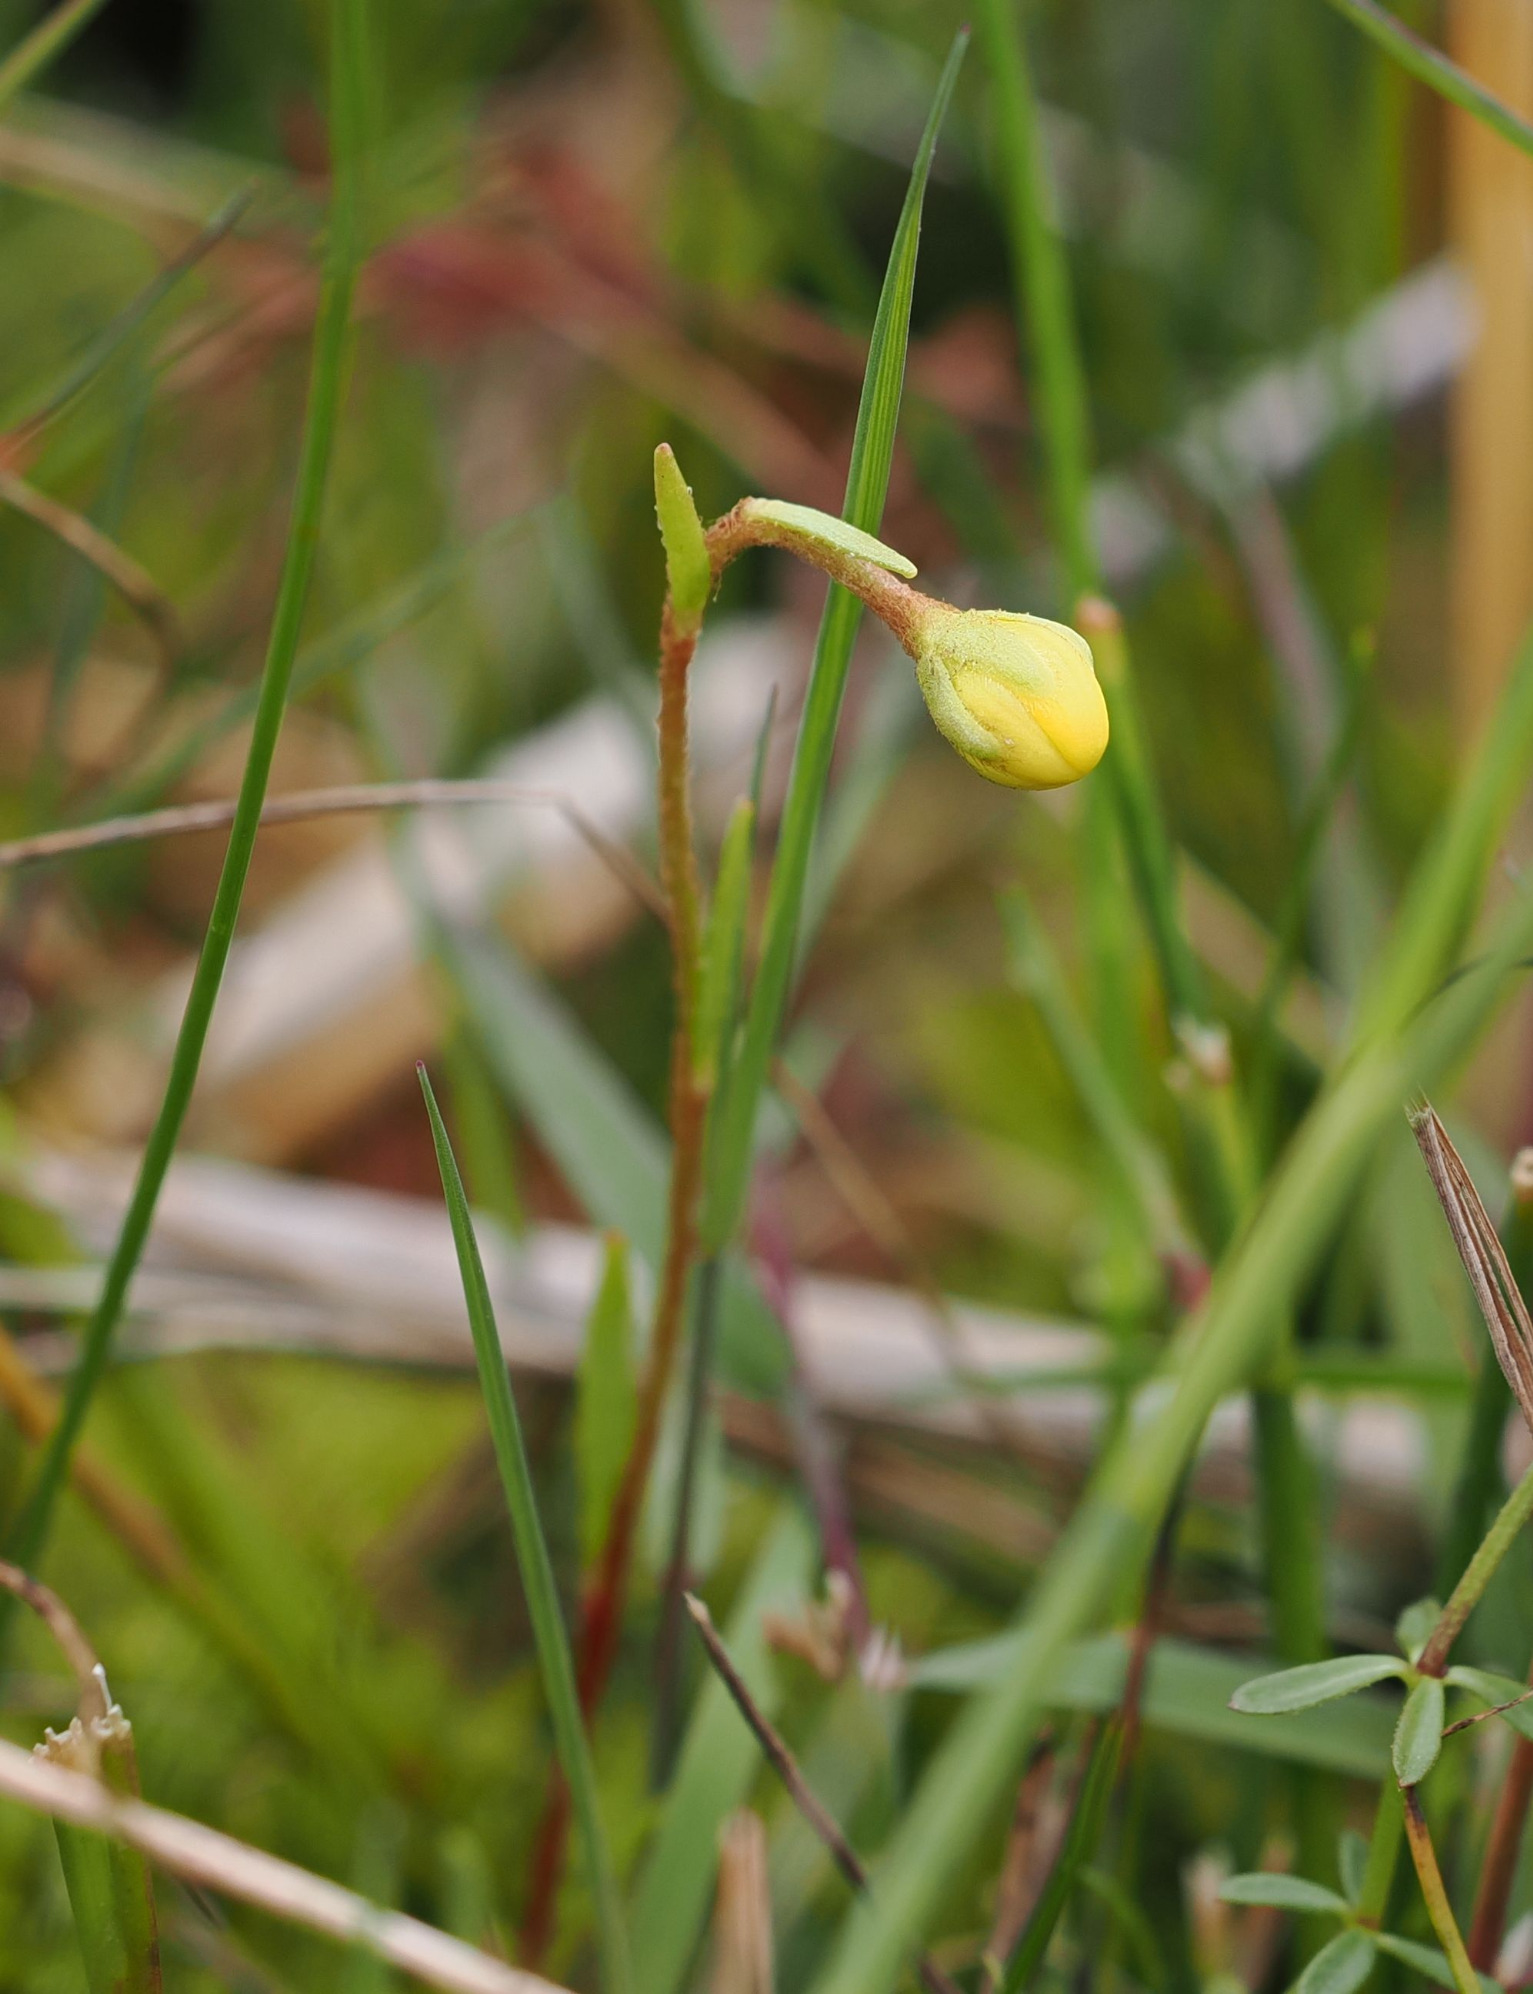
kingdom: Plantae
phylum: Tracheophyta
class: Magnoliopsida
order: Saxifragales
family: Saxifragaceae
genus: Saxifraga
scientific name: Saxifraga hirculus
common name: Gul stenbræk
